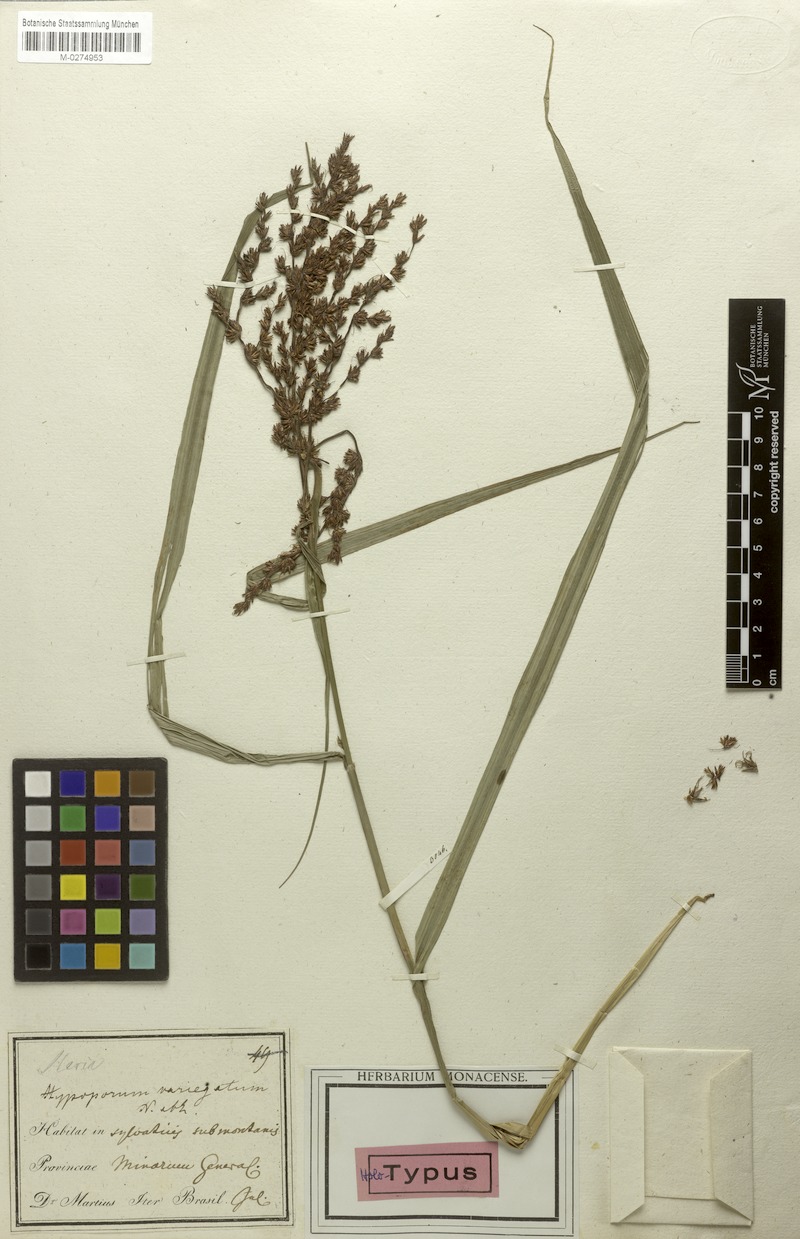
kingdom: Plantae
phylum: Tracheophyta
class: Liliopsida
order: Poales
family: Cyperaceae
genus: Scleria
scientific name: Scleria variegata
